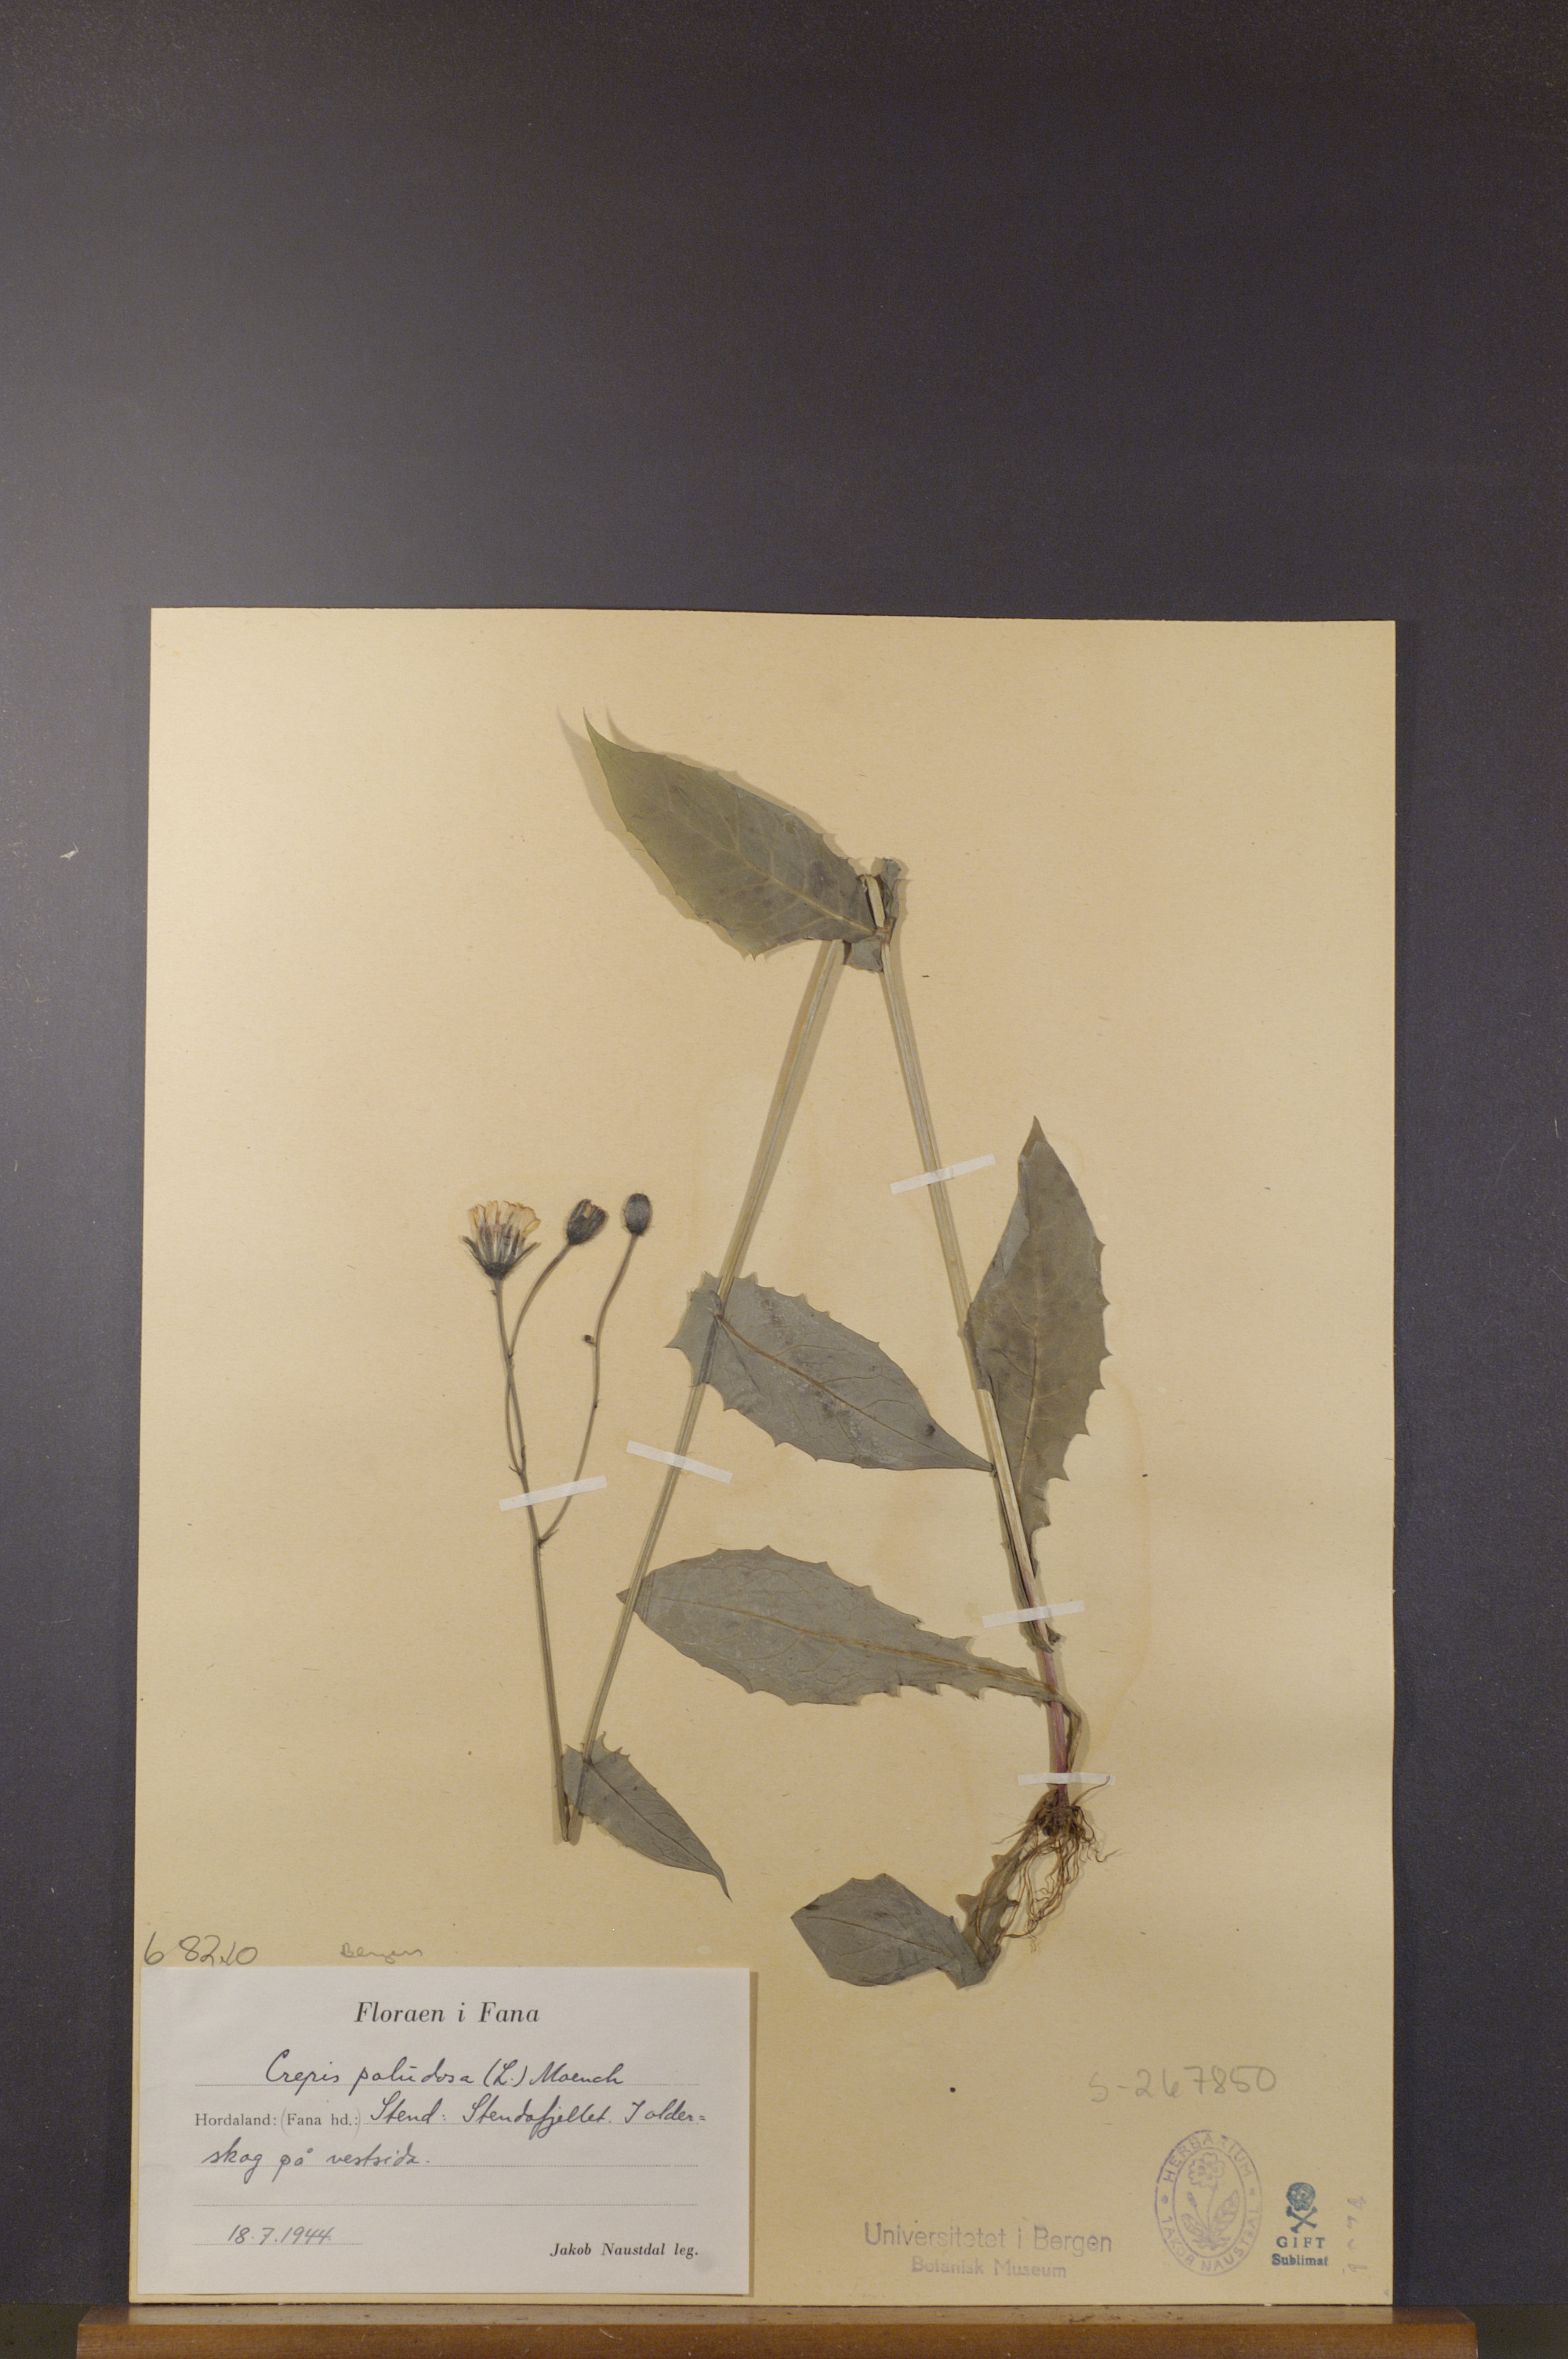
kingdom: Plantae
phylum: Tracheophyta
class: Magnoliopsida
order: Asterales
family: Asteraceae
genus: Crepis
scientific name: Crepis paludosa
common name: Marsh hawk's-beard
